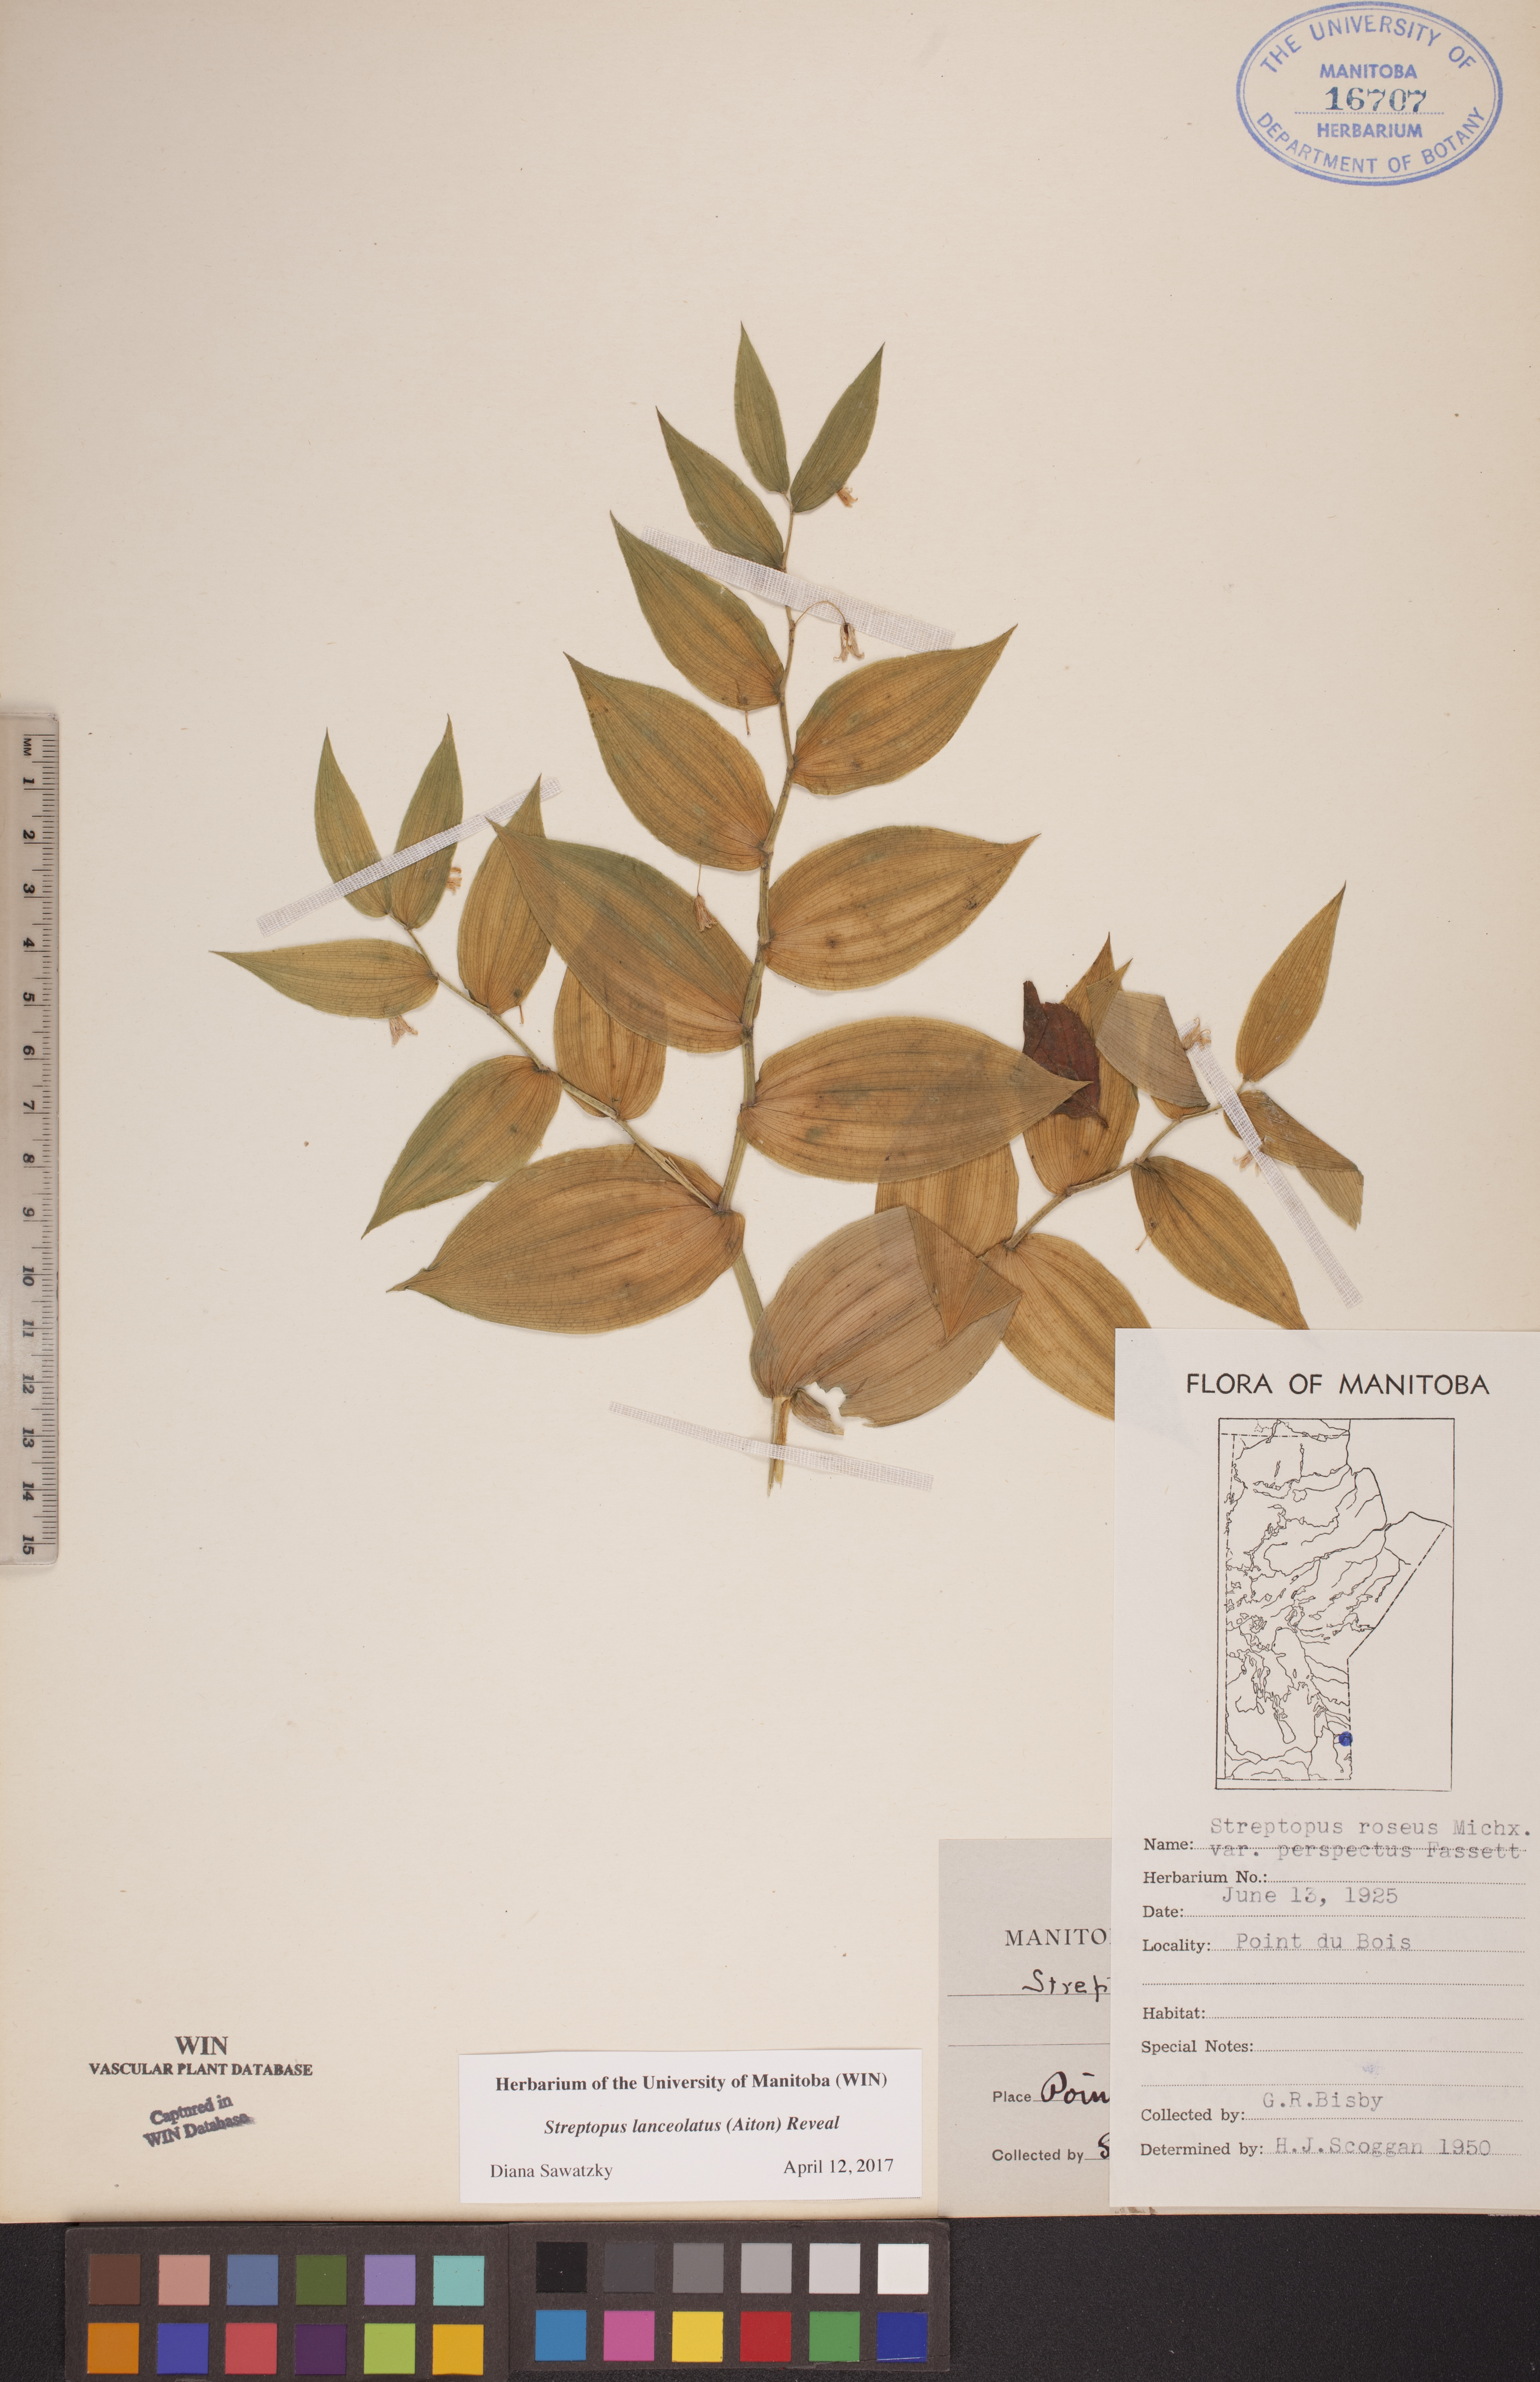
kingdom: Plantae
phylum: Tracheophyta
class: Liliopsida
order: Liliales
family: Liliaceae
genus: Streptopus
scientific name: Streptopus lanceolatus
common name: Rose mandarin
